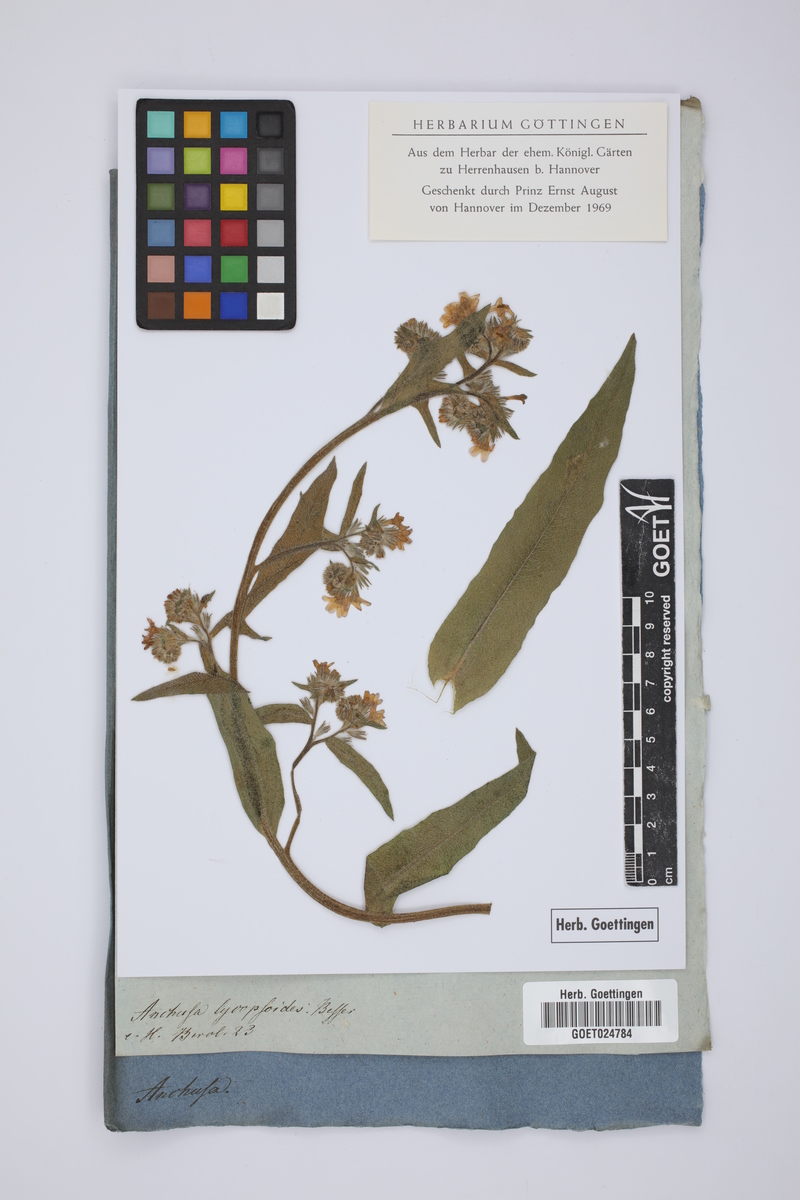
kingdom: Plantae
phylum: Tracheophyta
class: Magnoliopsida
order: Boraginales
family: Boraginaceae
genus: Anchusa
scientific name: Anchusa officinalis
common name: Alkanet
